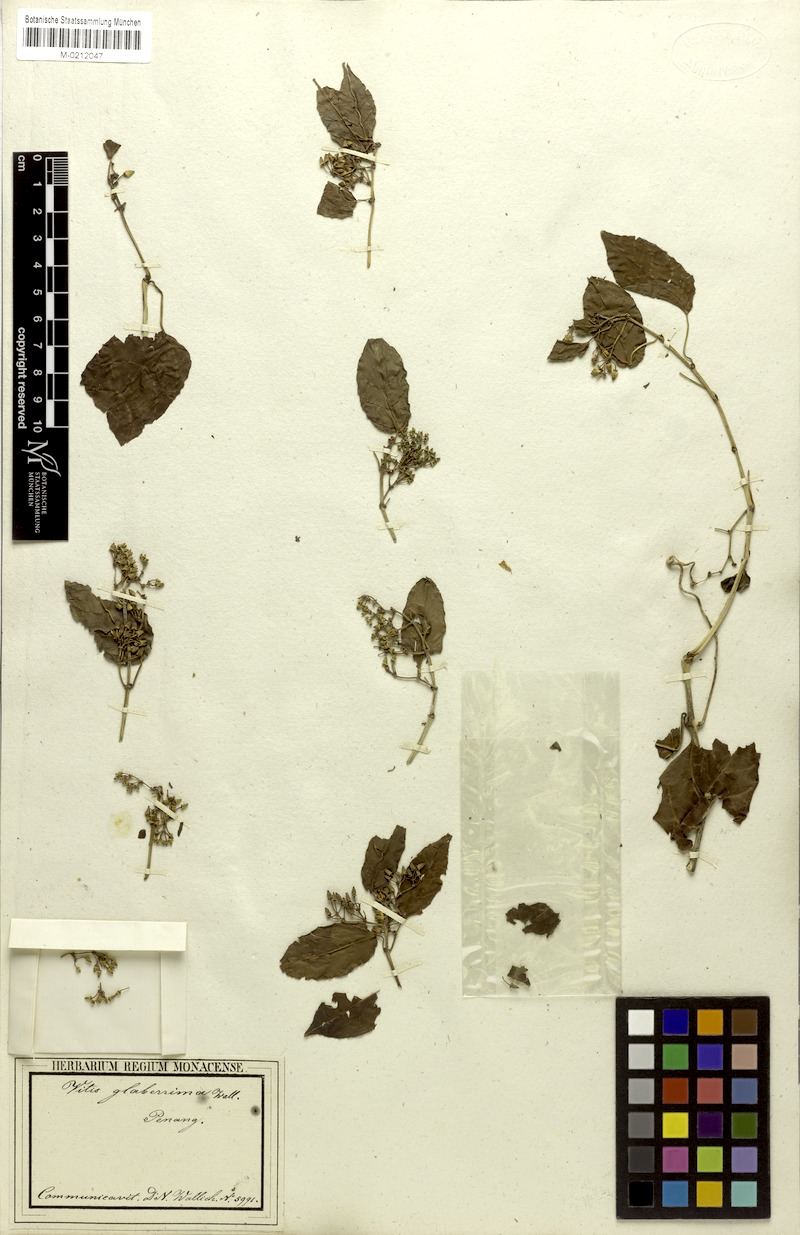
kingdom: Plantae
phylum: Tracheophyta
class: Magnoliopsida
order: Vitales
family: Vitaceae
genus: Cissus
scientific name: Cissus nodosa
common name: Grape ivy
